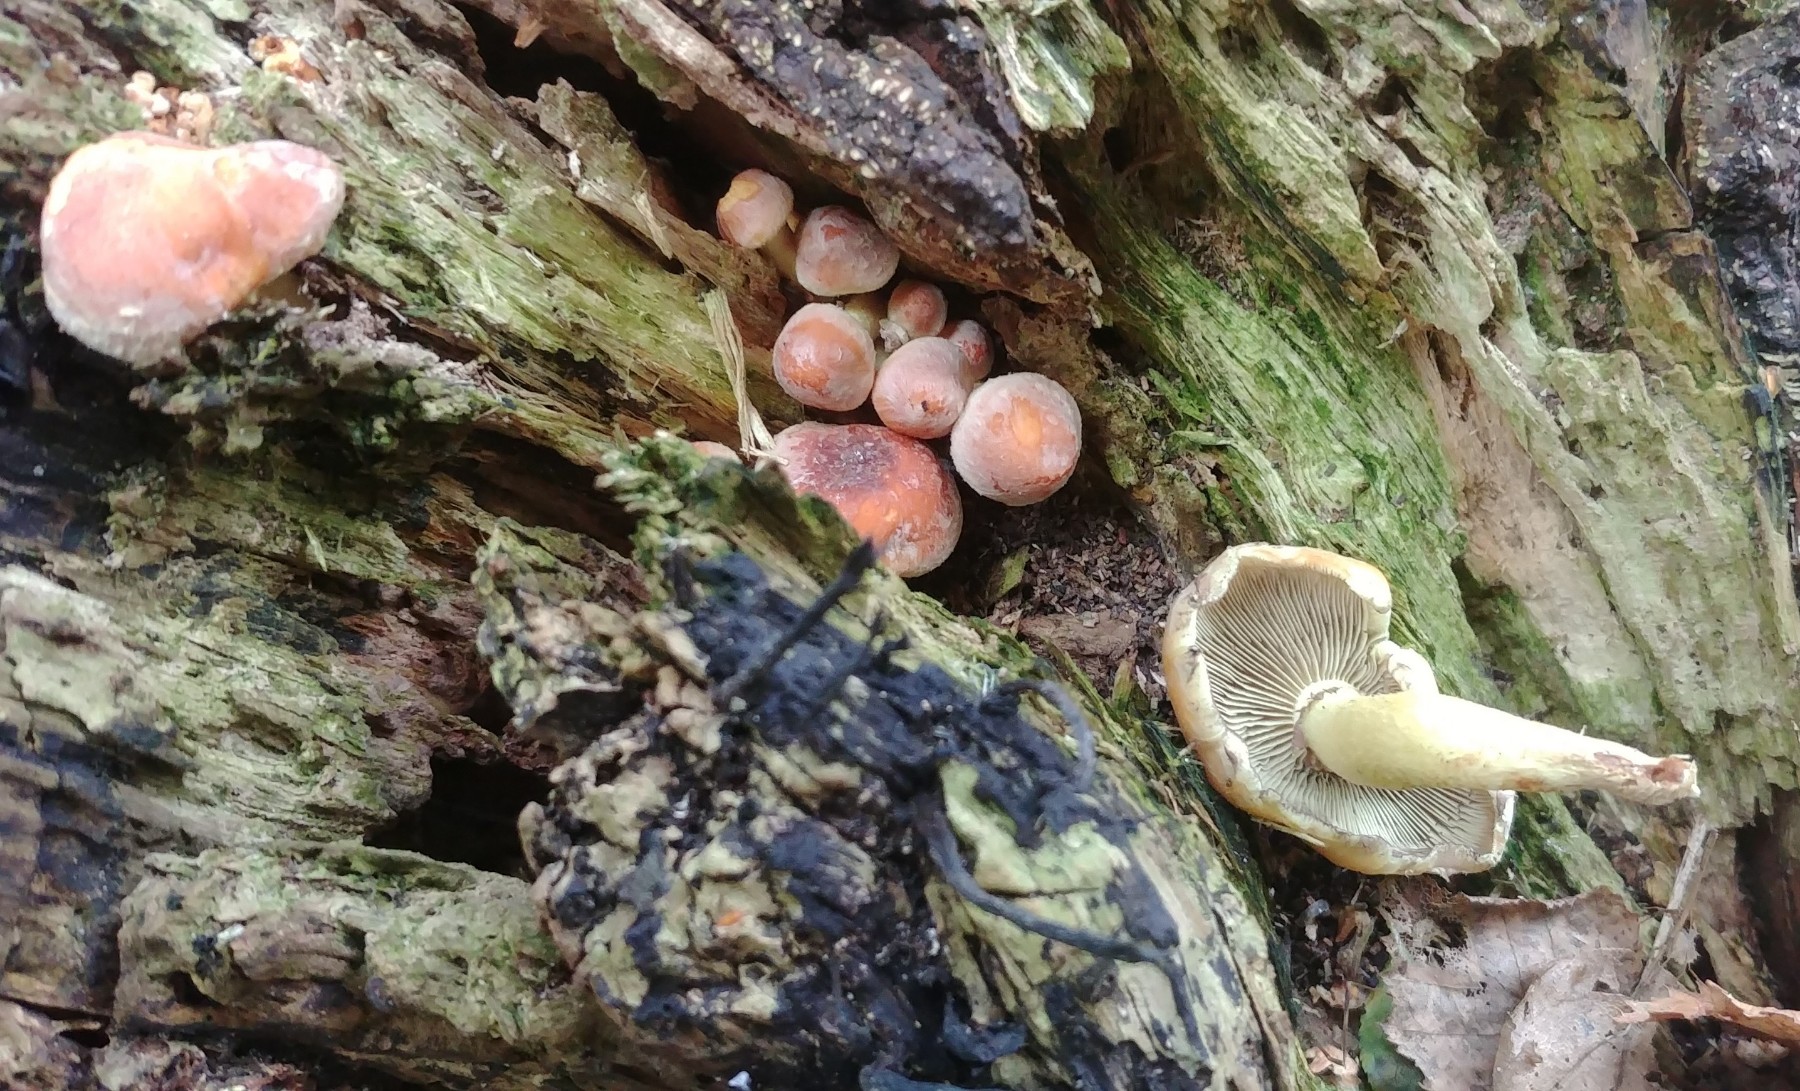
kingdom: Fungi
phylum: Basidiomycota
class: Agaricomycetes
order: Agaricales
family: Strophariaceae
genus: Hypholoma
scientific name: Hypholoma fasciculare
